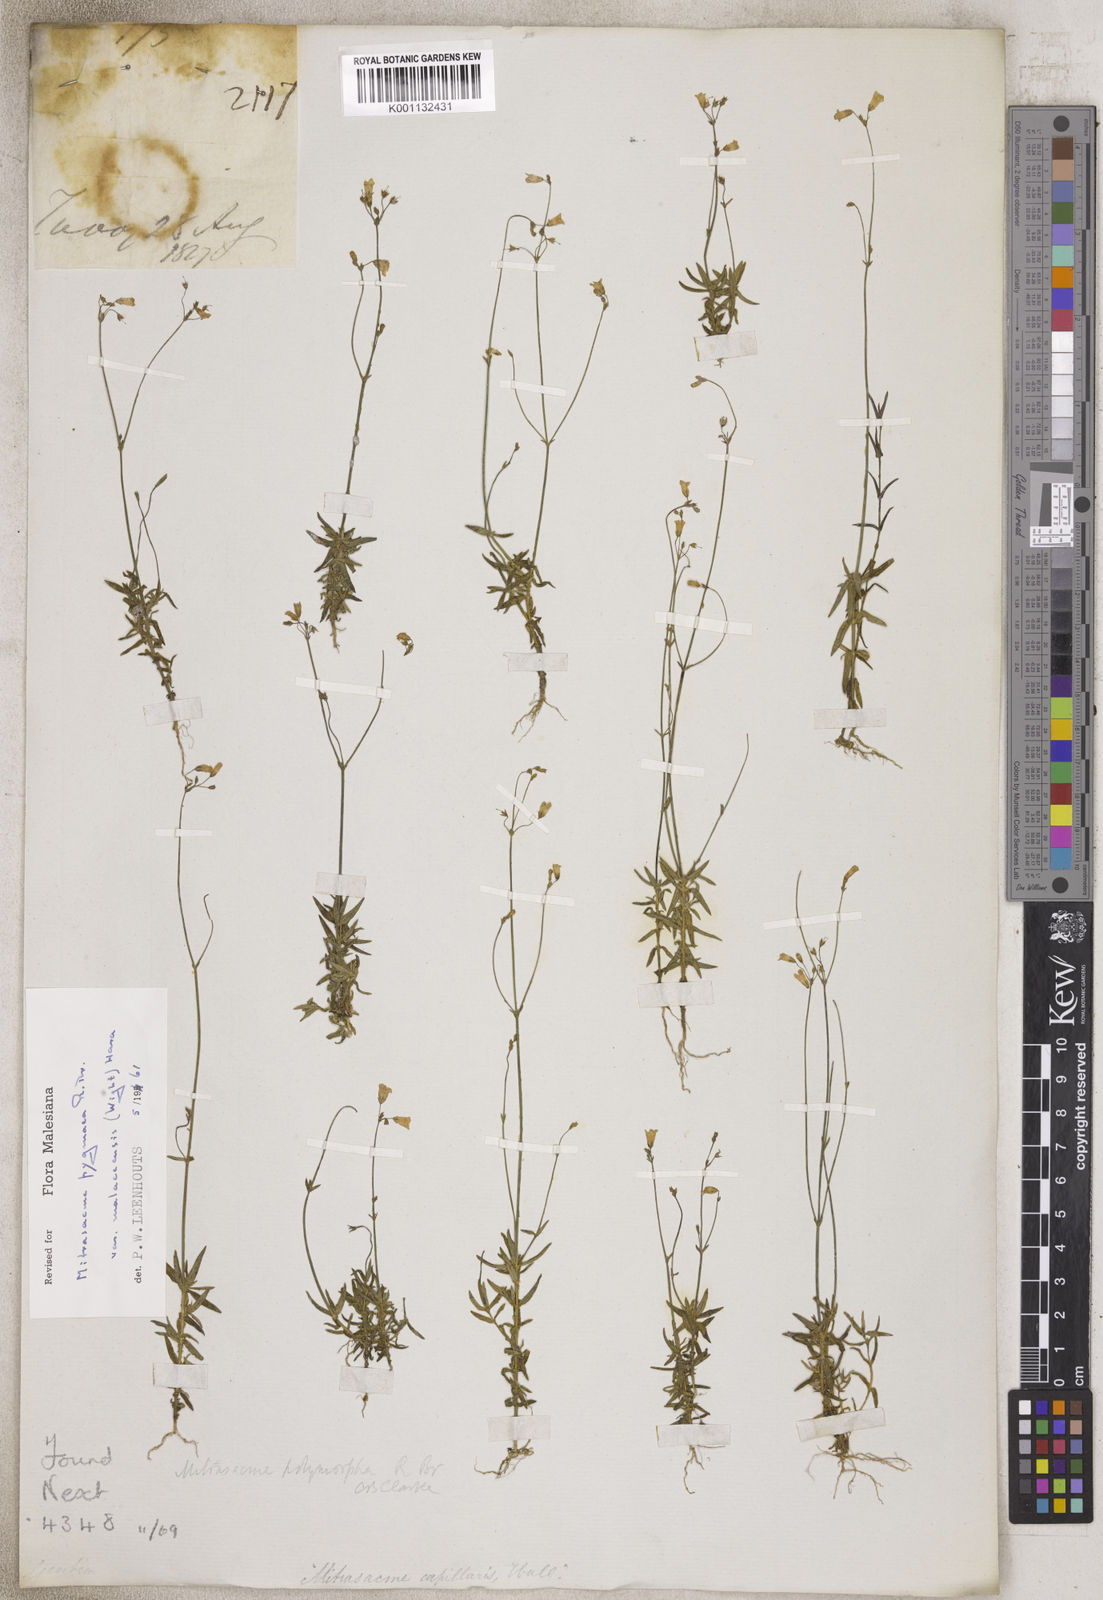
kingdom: Plantae
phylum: Tracheophyta
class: Magnoliopsida
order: Gentianales
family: Loganiaceae
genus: Mitrasacme
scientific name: Mitrasacme
